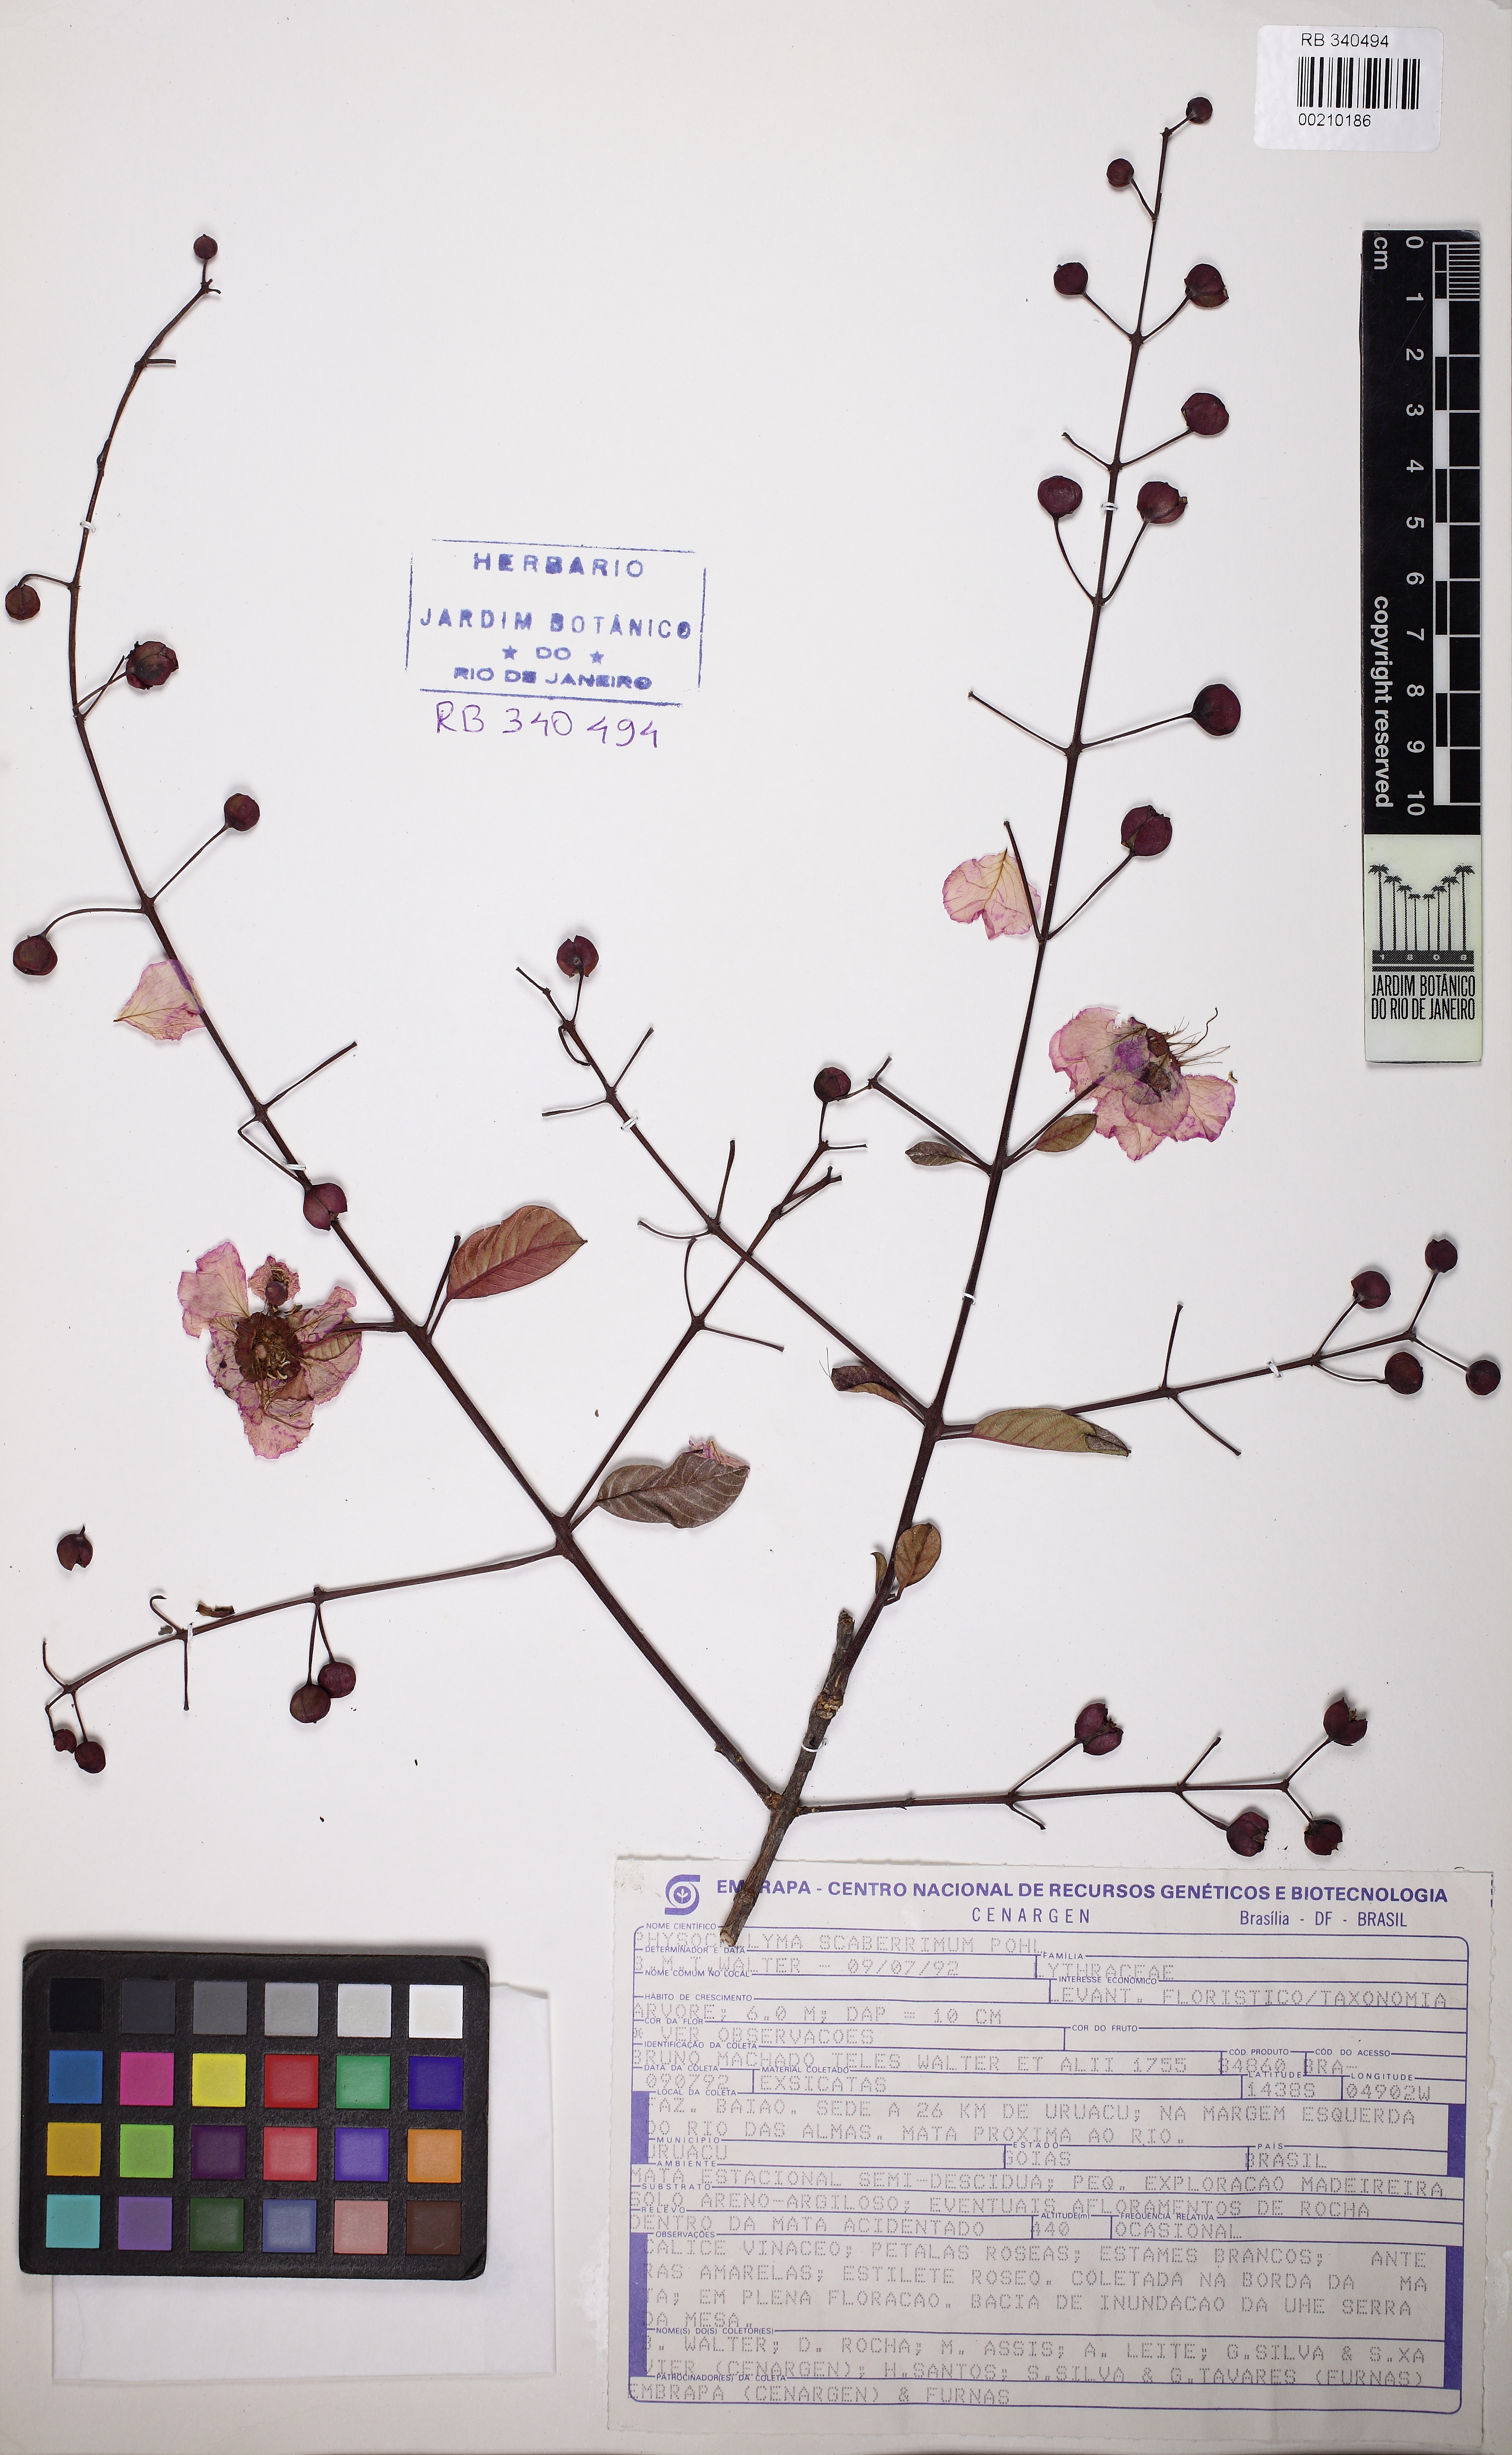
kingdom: Plantae
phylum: Tracheophyta
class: Magnoliopsida
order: Myrtales
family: Lythraceae
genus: Physocalymma
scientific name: Physocalymma scaberrimum
